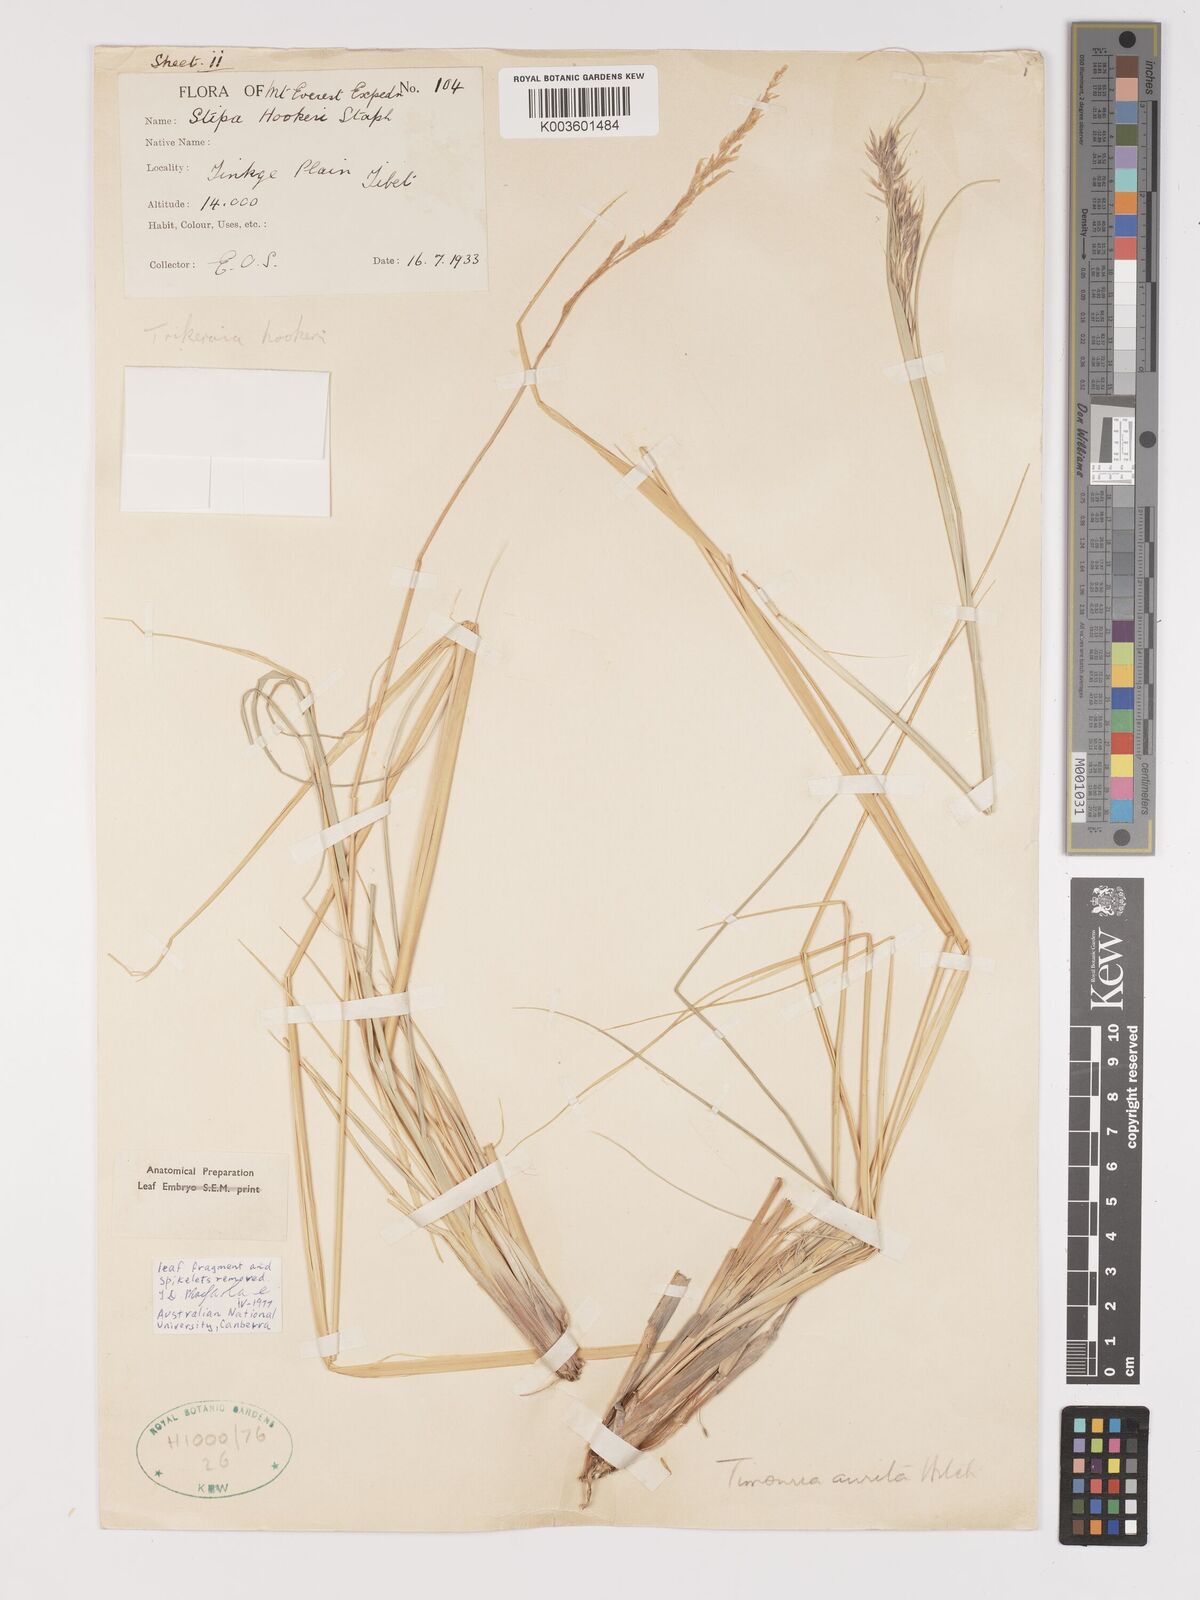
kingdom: Plantae
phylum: Tracheophyta
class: Liliopsida
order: Poales
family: Poaceae
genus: Trikeraia
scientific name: Trikeraia hookeri
